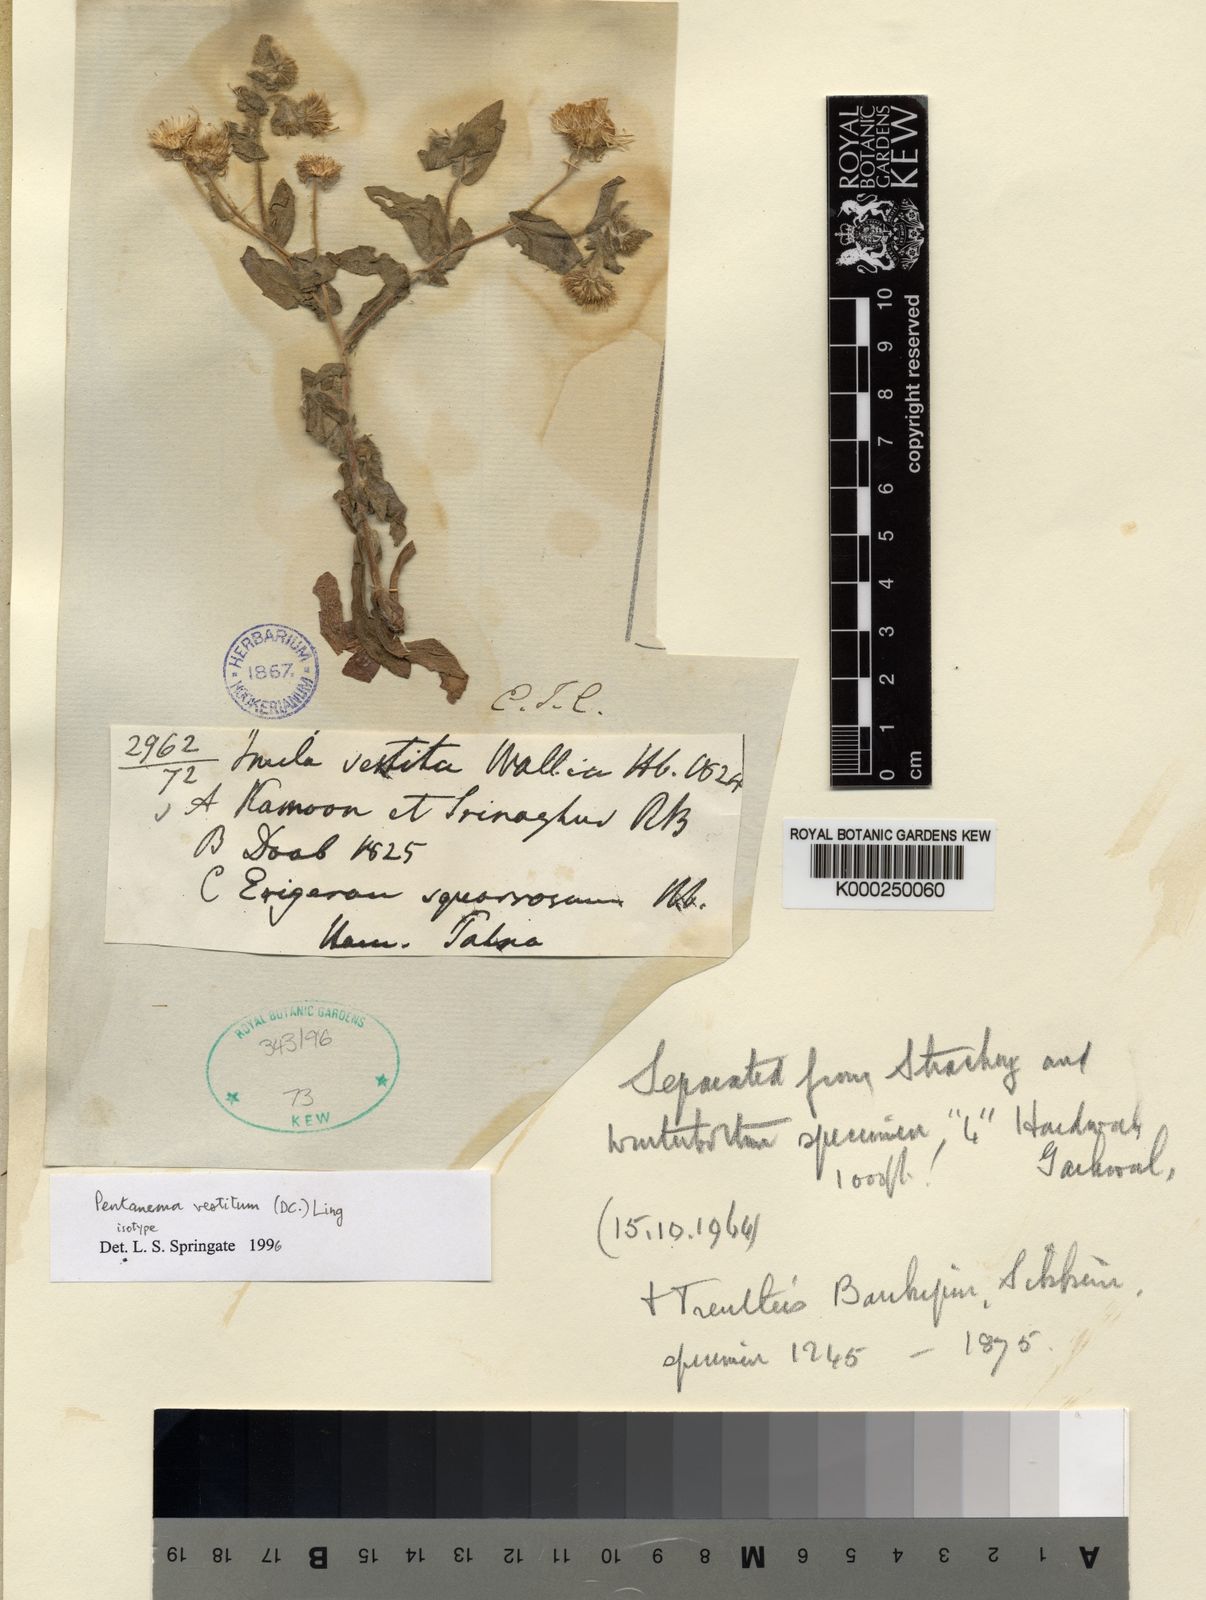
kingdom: Plantae
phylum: Tracheophyta
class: Magnoliopsida
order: Asterales
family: Asteraceae
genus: Pentanema
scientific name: Pentanema divaricatum
